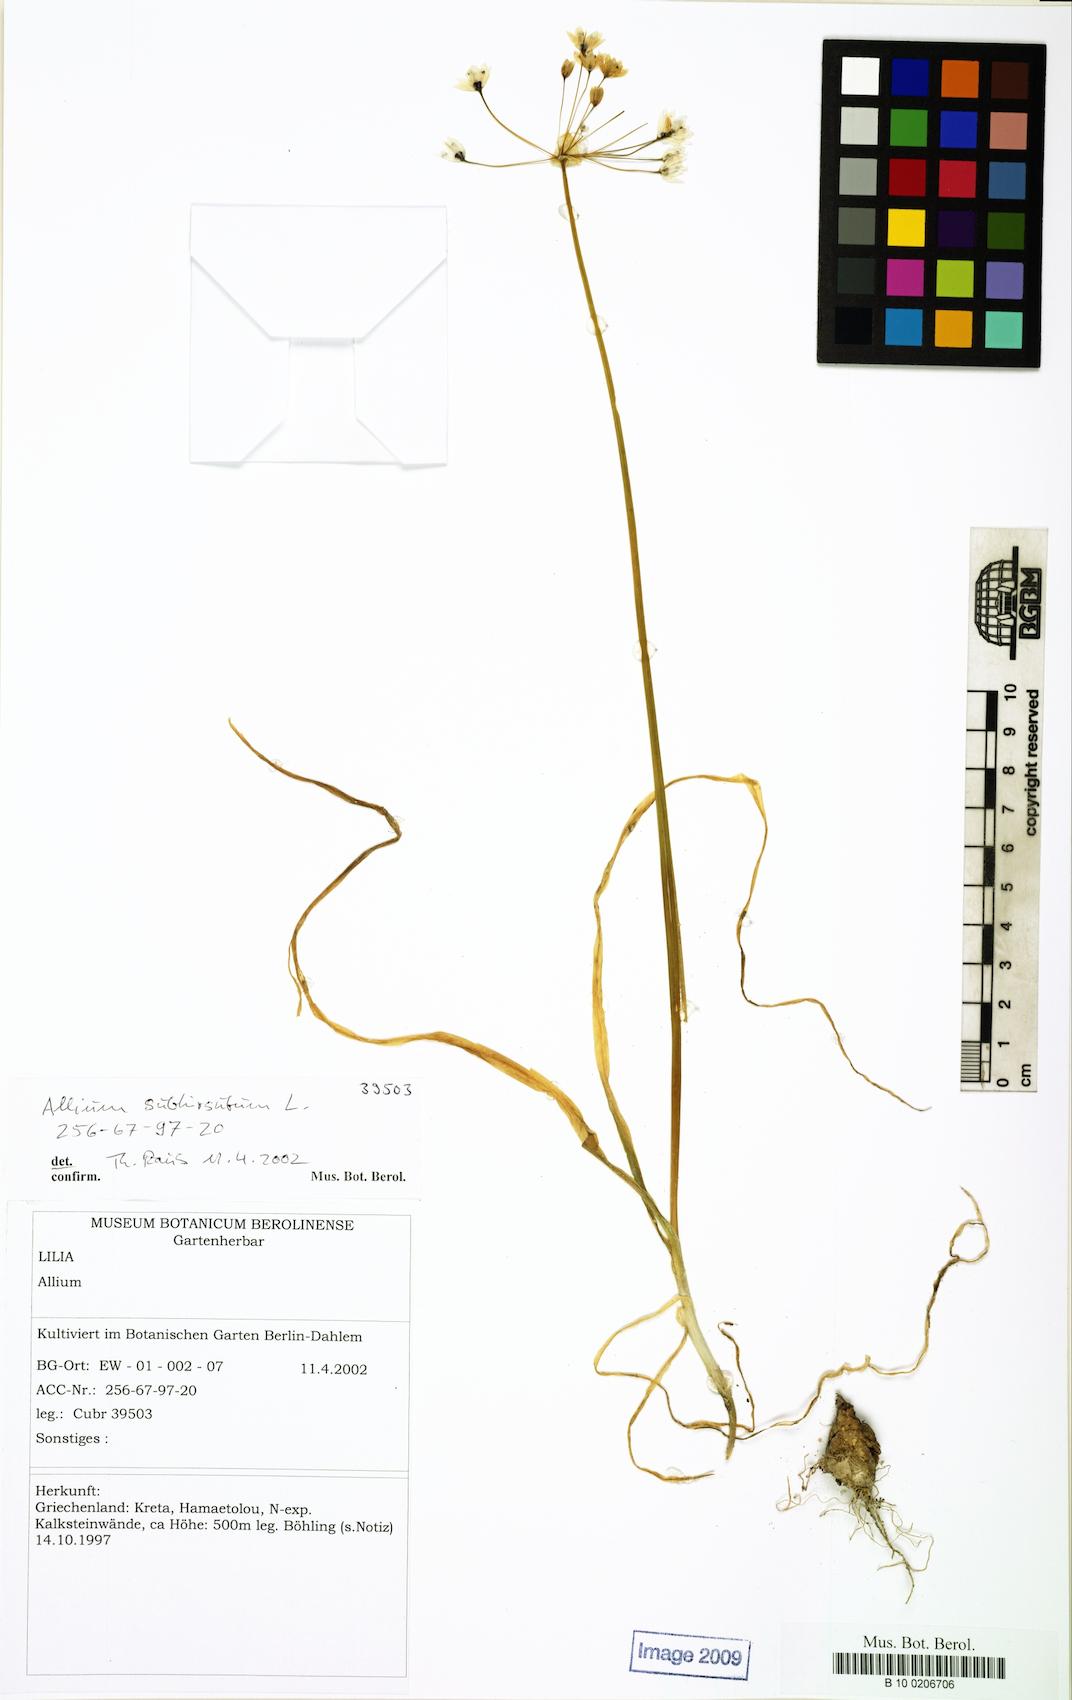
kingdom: Plantae
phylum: Tracheophyta
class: Liliopsida
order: Asparagales
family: Amaryllidaceae
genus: Allium
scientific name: Allium subhirsutum
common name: Hairy garlic
